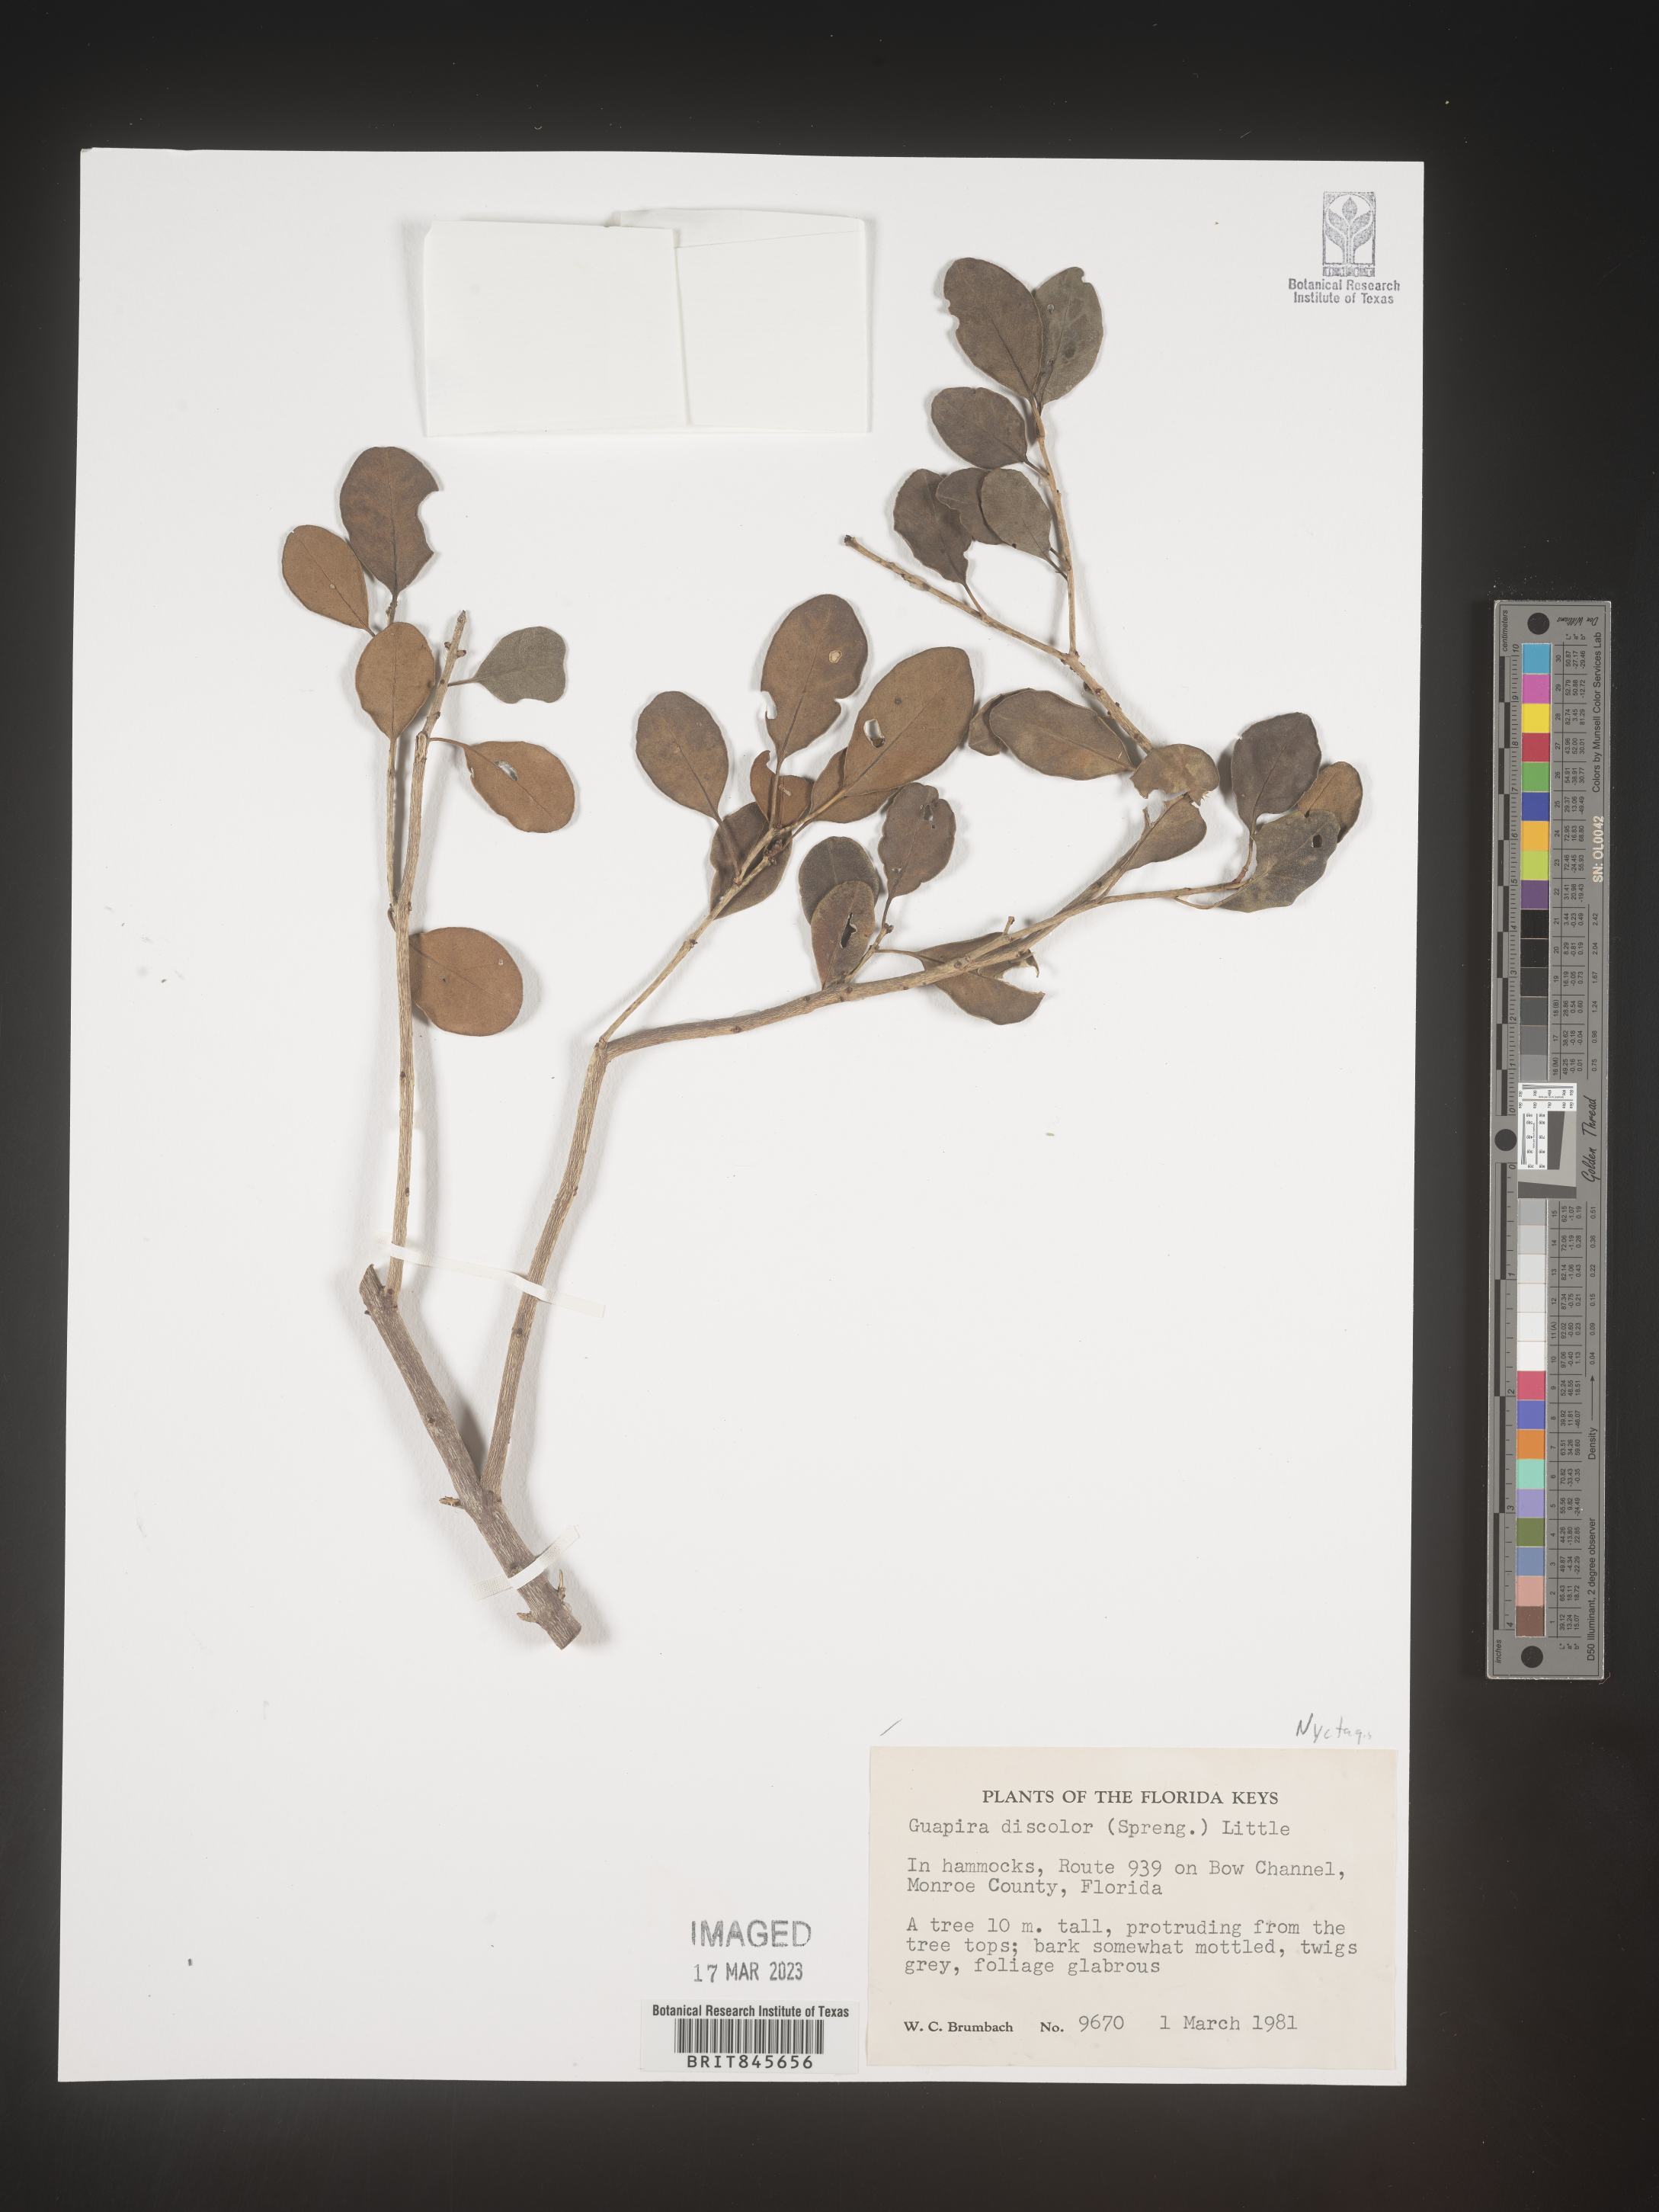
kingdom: Plantae
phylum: Tracheophyta
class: Magnoliopsida
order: Caryophyllales
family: Nyctaginaceae
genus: Guapira
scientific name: Guapira discolor
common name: Beeftree
